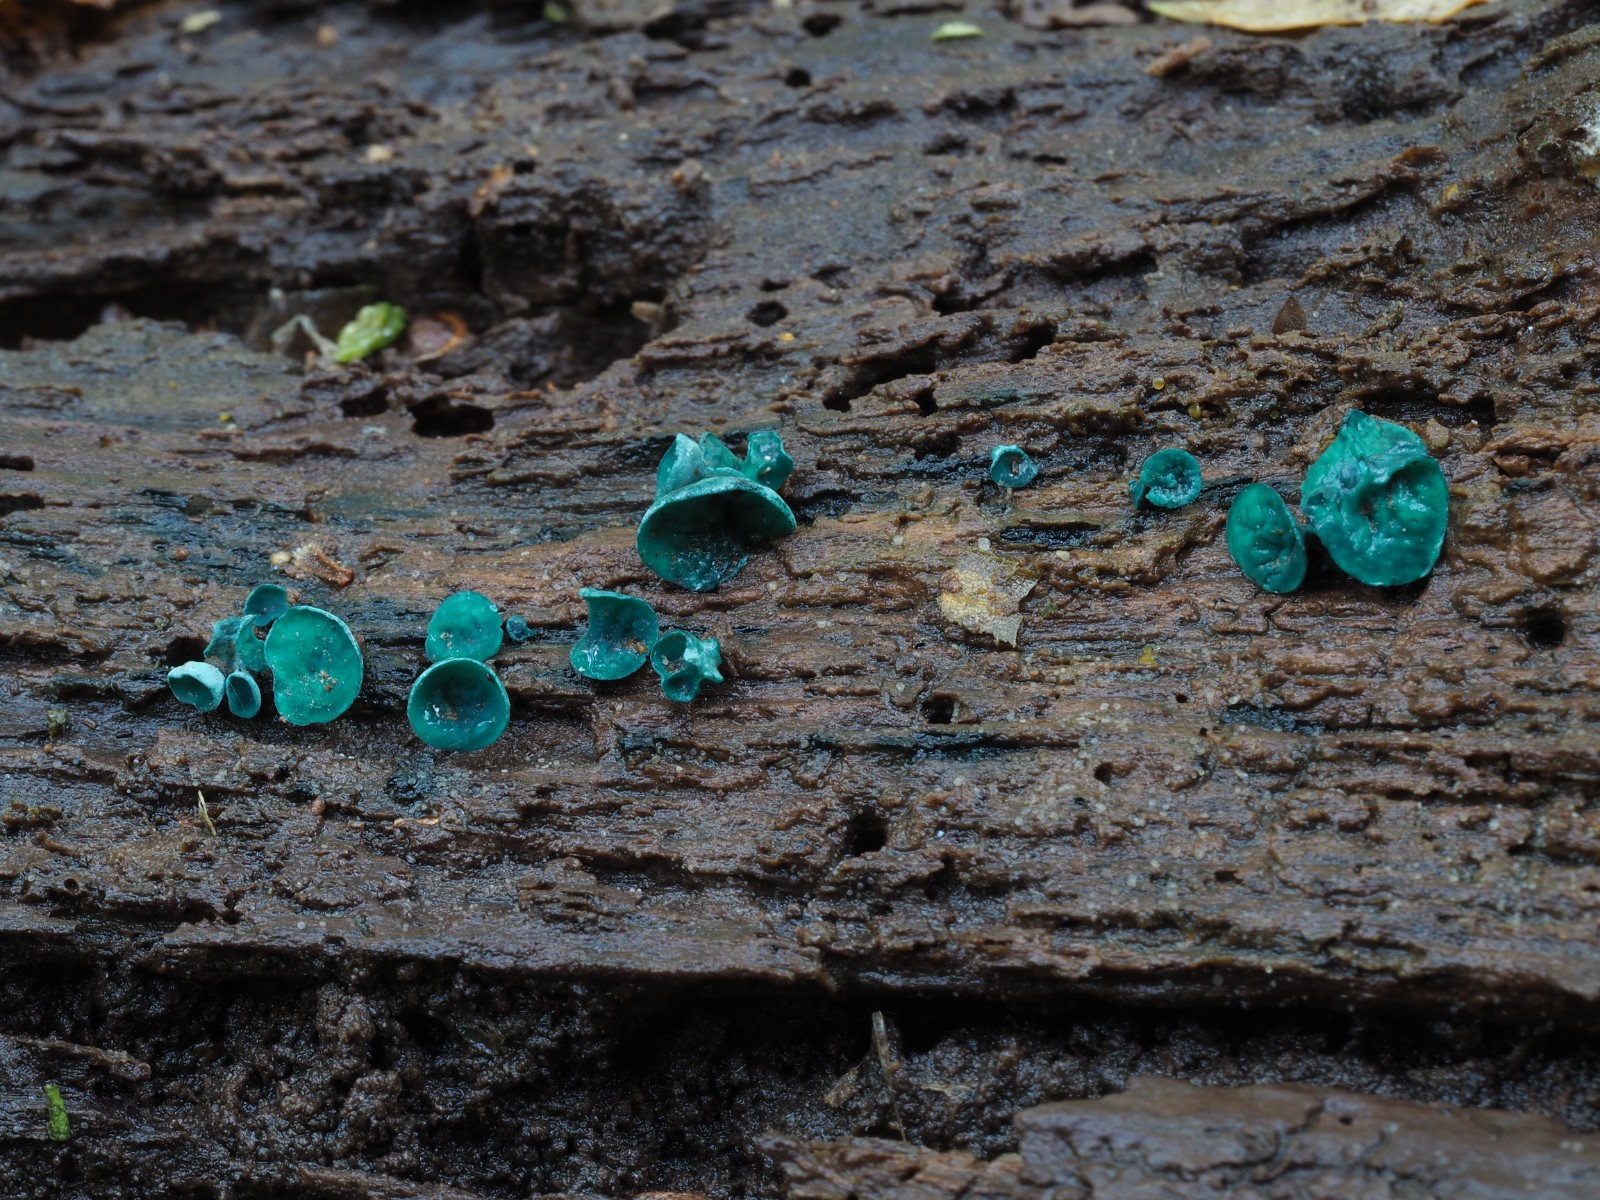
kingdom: Fungi
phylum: Ascomycota
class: Leotiomycetes
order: Helotiales
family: Chlorociboriaceae
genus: Chlorociboria
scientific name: Chlorociboria aeruginascens
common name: almindelig grønskive
